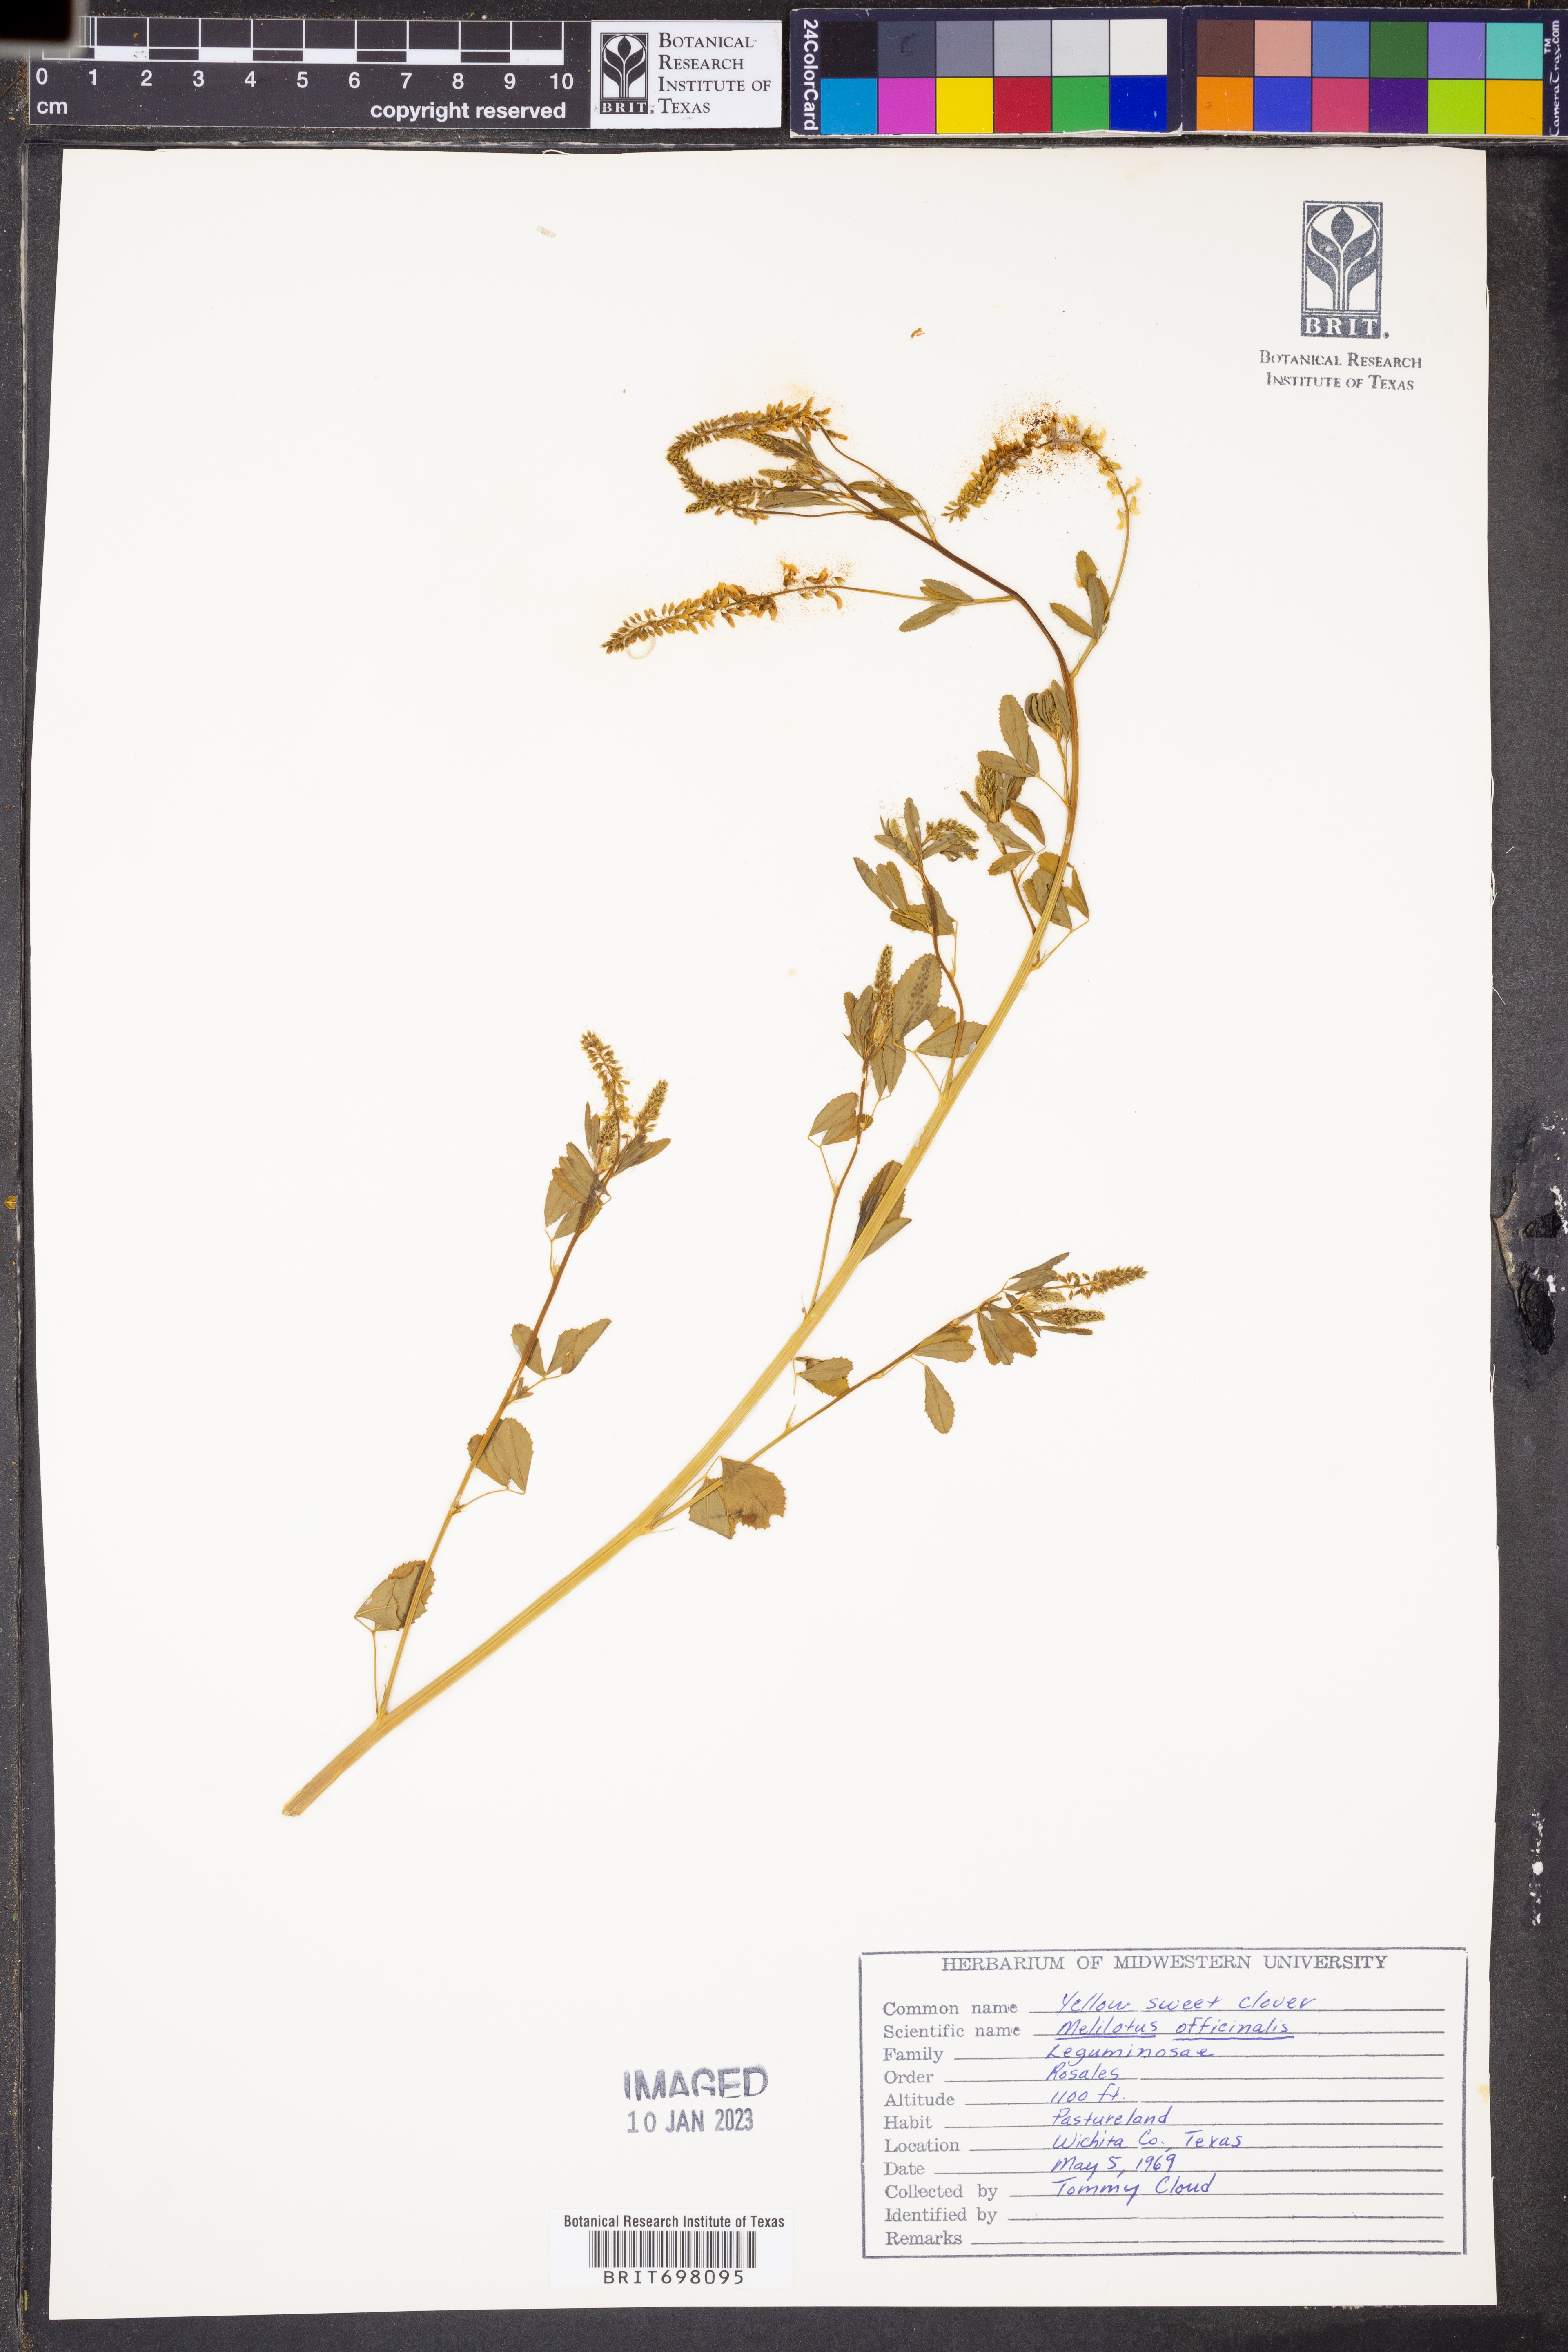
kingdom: Plantae
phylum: Tracheophyta
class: Magnoliopsida
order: Fabales
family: Fabaceae
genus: Melilotus
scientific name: Melilotus officinalis
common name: Sweetclover
